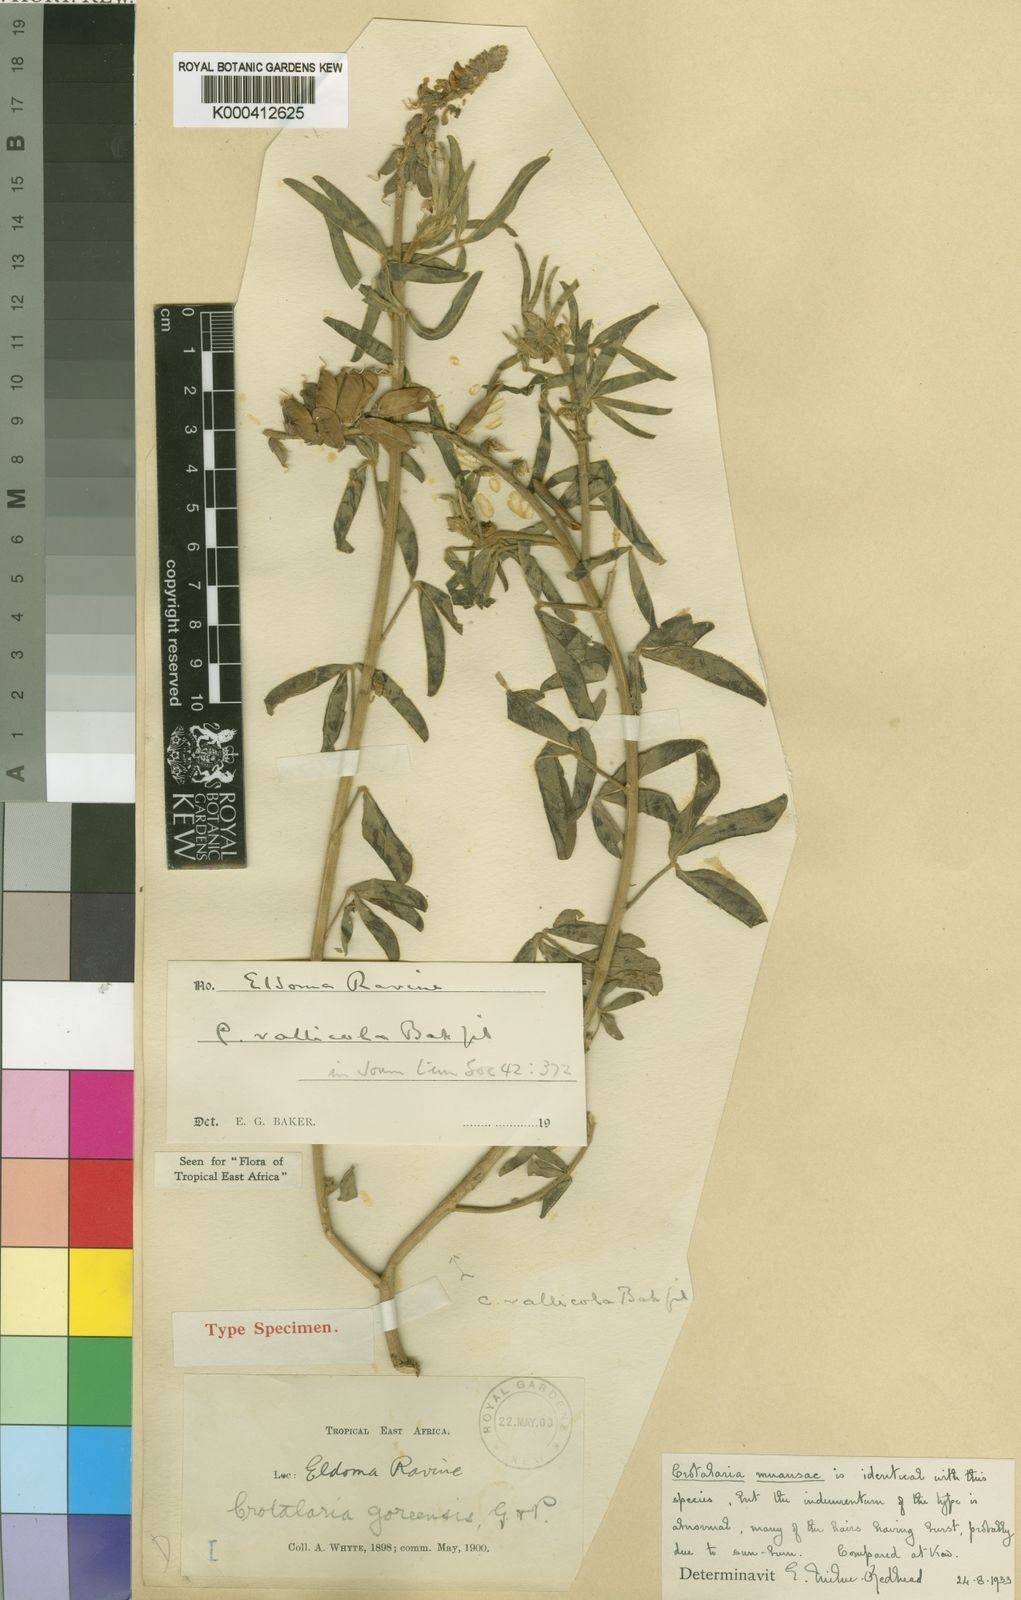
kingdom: Plantae
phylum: Tracheophyta
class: Magnoliopsida
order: Fabales
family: Fabaceae
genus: Crotalaria
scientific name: Crotalaria vallicola
